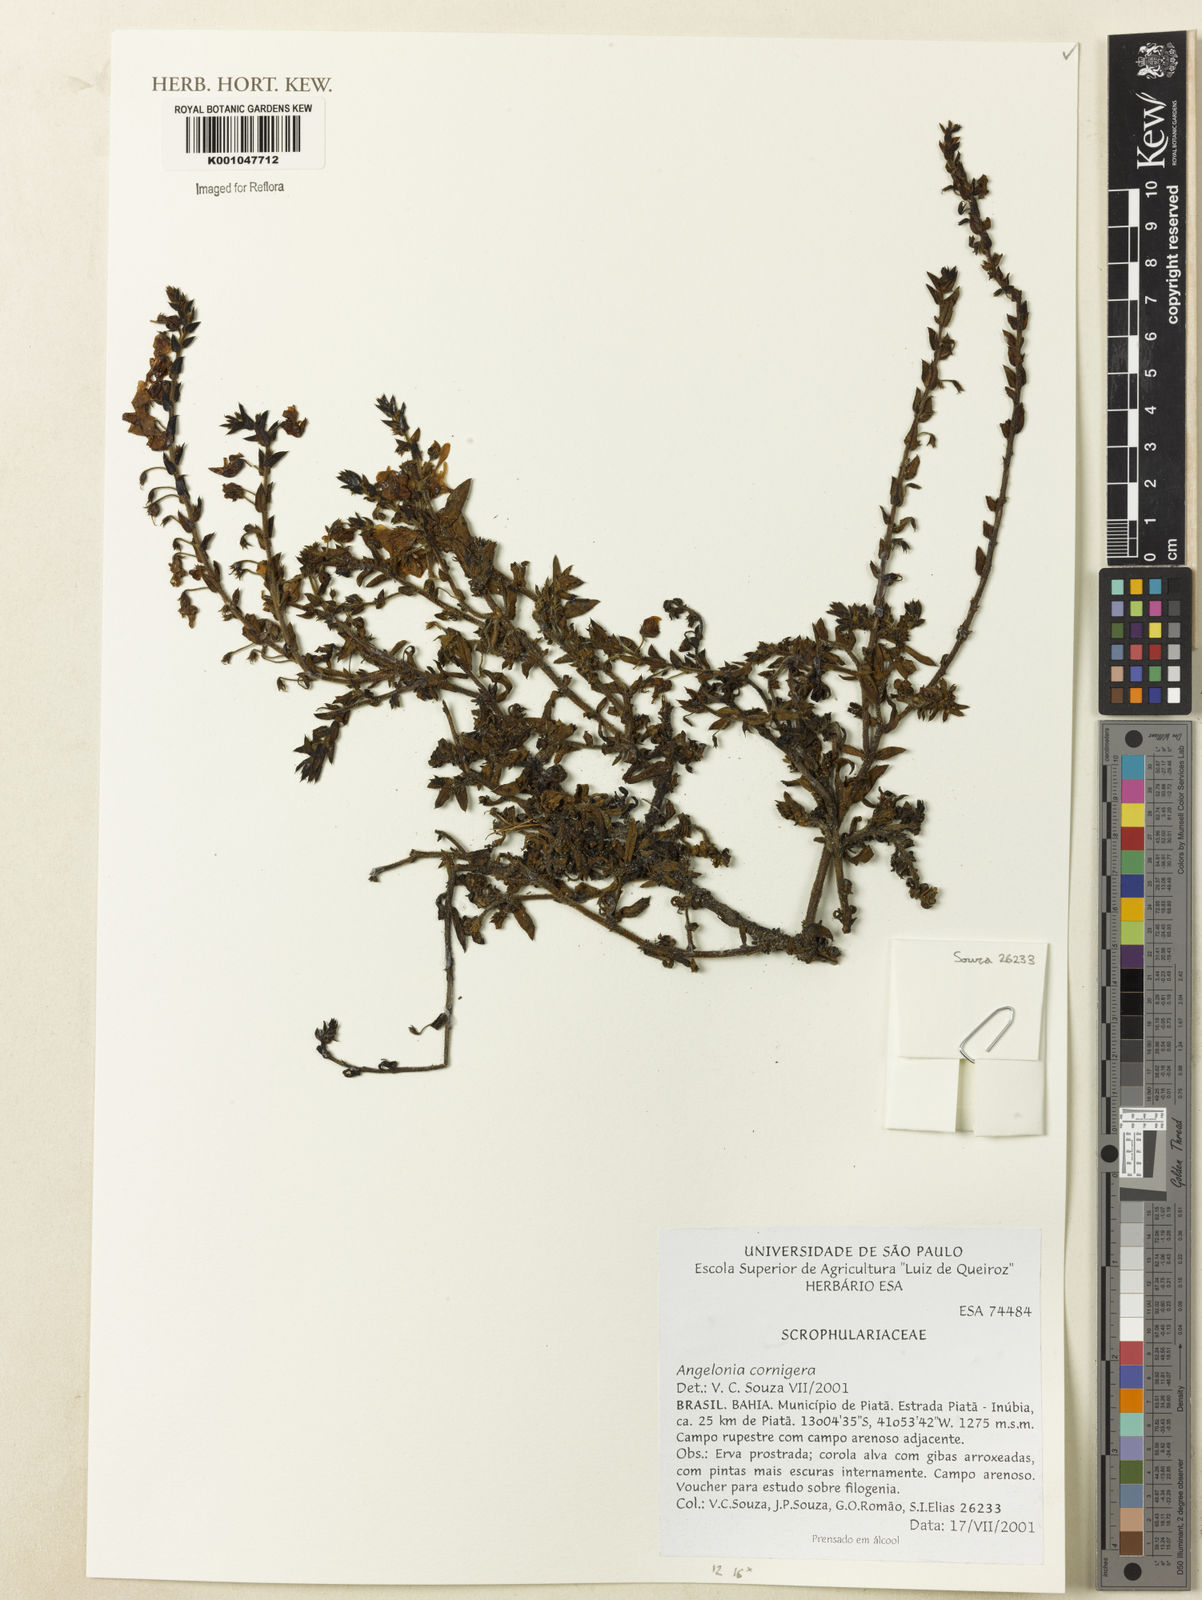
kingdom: Plantae
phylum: Tracheophyta
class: Magnoliopsida
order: Lamiales
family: Plantaginaceae
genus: Angelonia
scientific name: Angelonia cornigera
